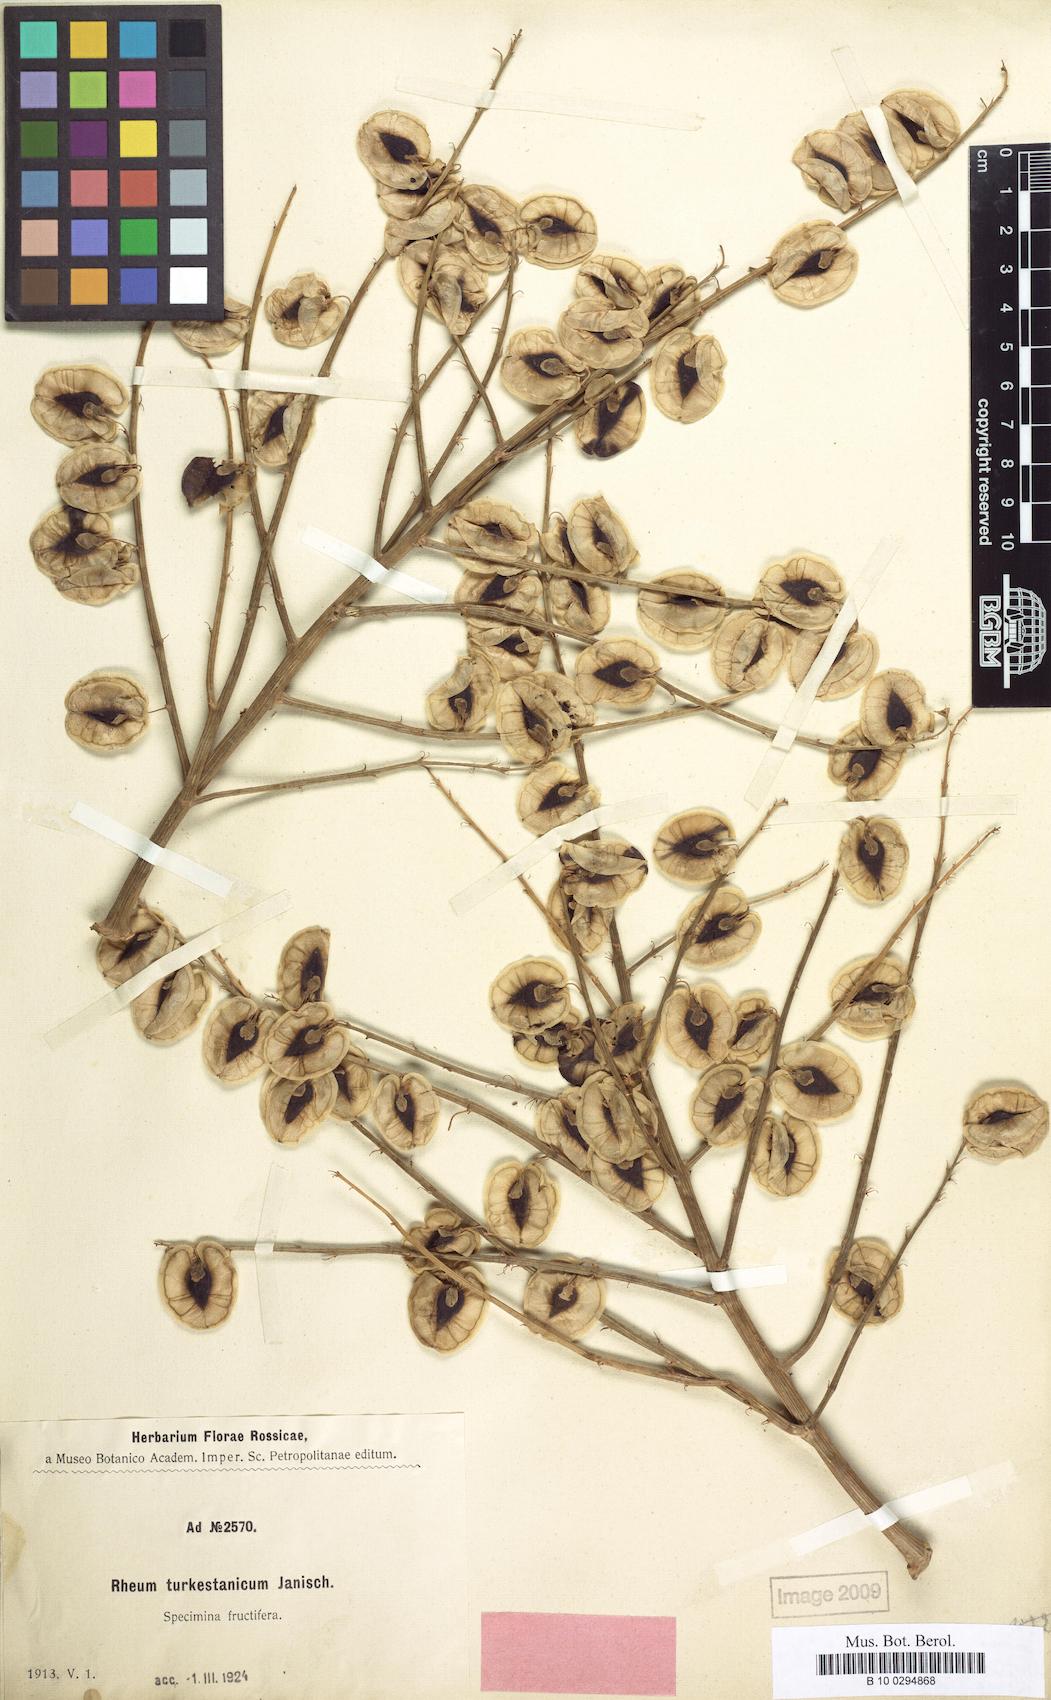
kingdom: Plantae
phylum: Tracheophyta
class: Magnoliopsida
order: Caryophyllales
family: Polygonaceae
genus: Rheum
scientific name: Rheum turkestanicum
